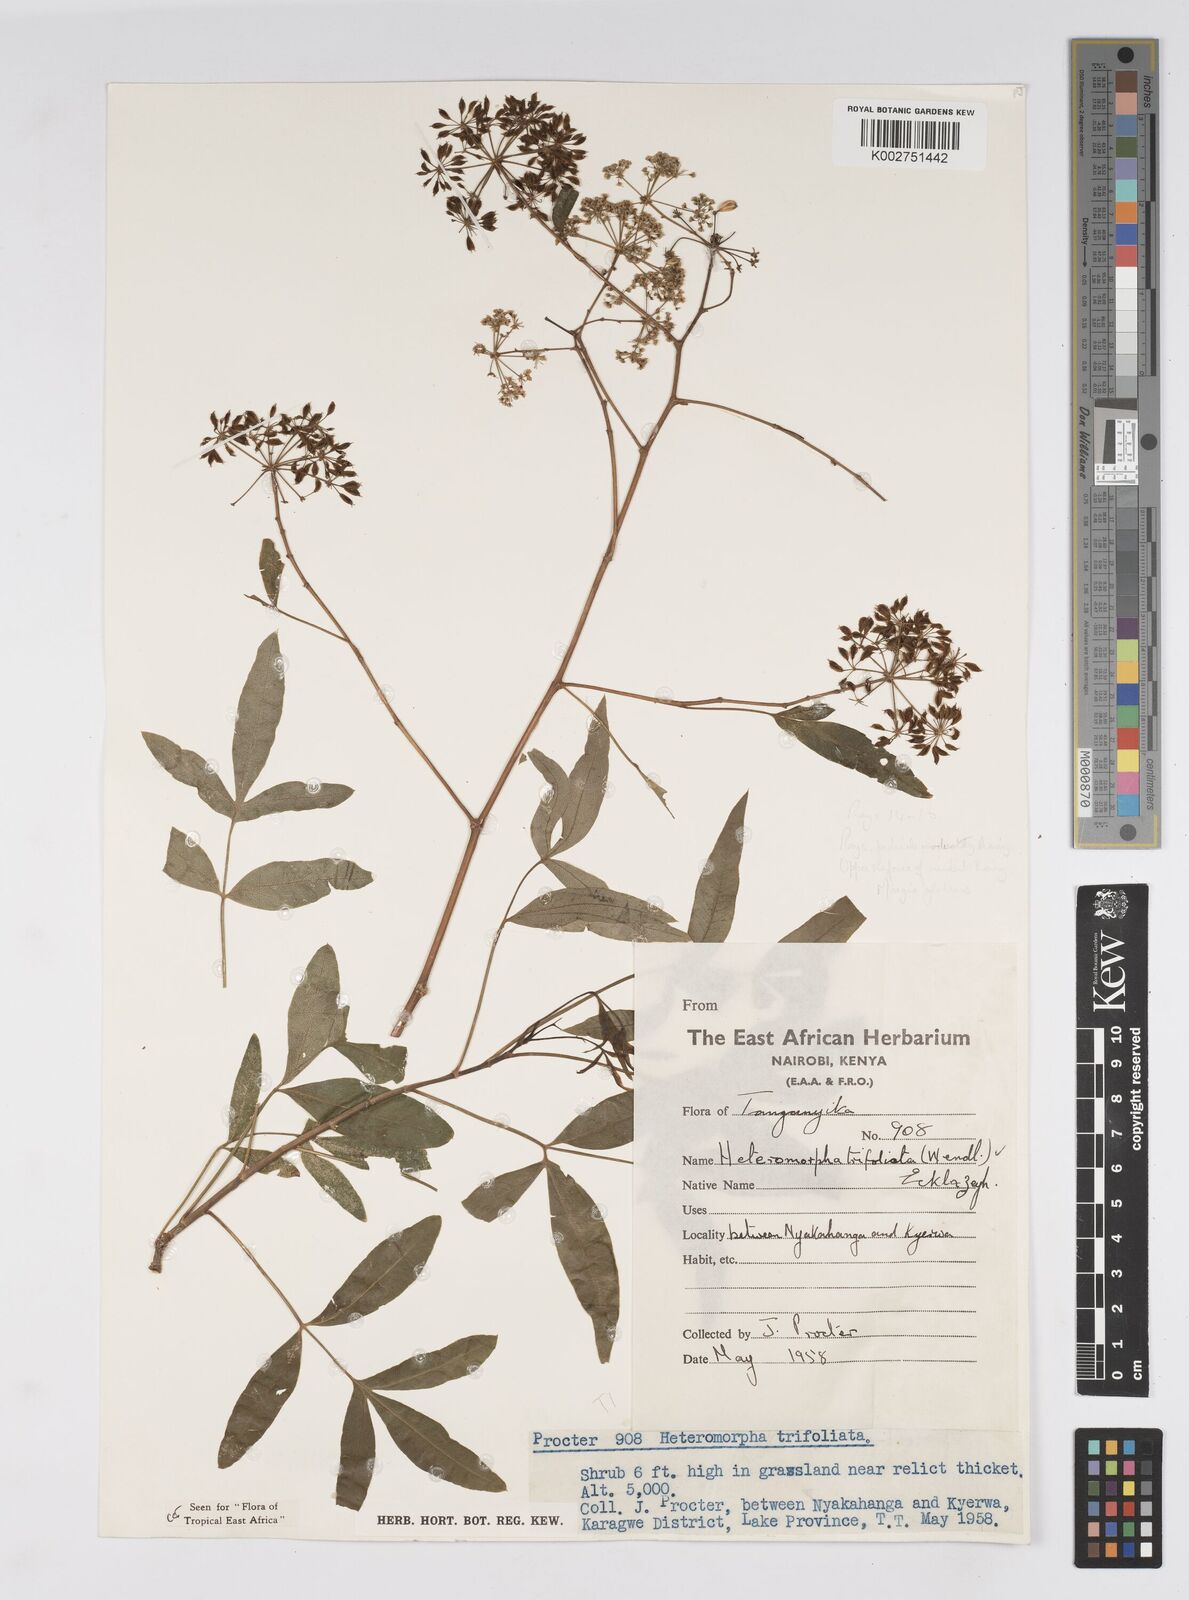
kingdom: Plantae
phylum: Tracheophyta
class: Magnoliopsida
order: Apiales
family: Apiaceae
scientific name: Apiaceae
